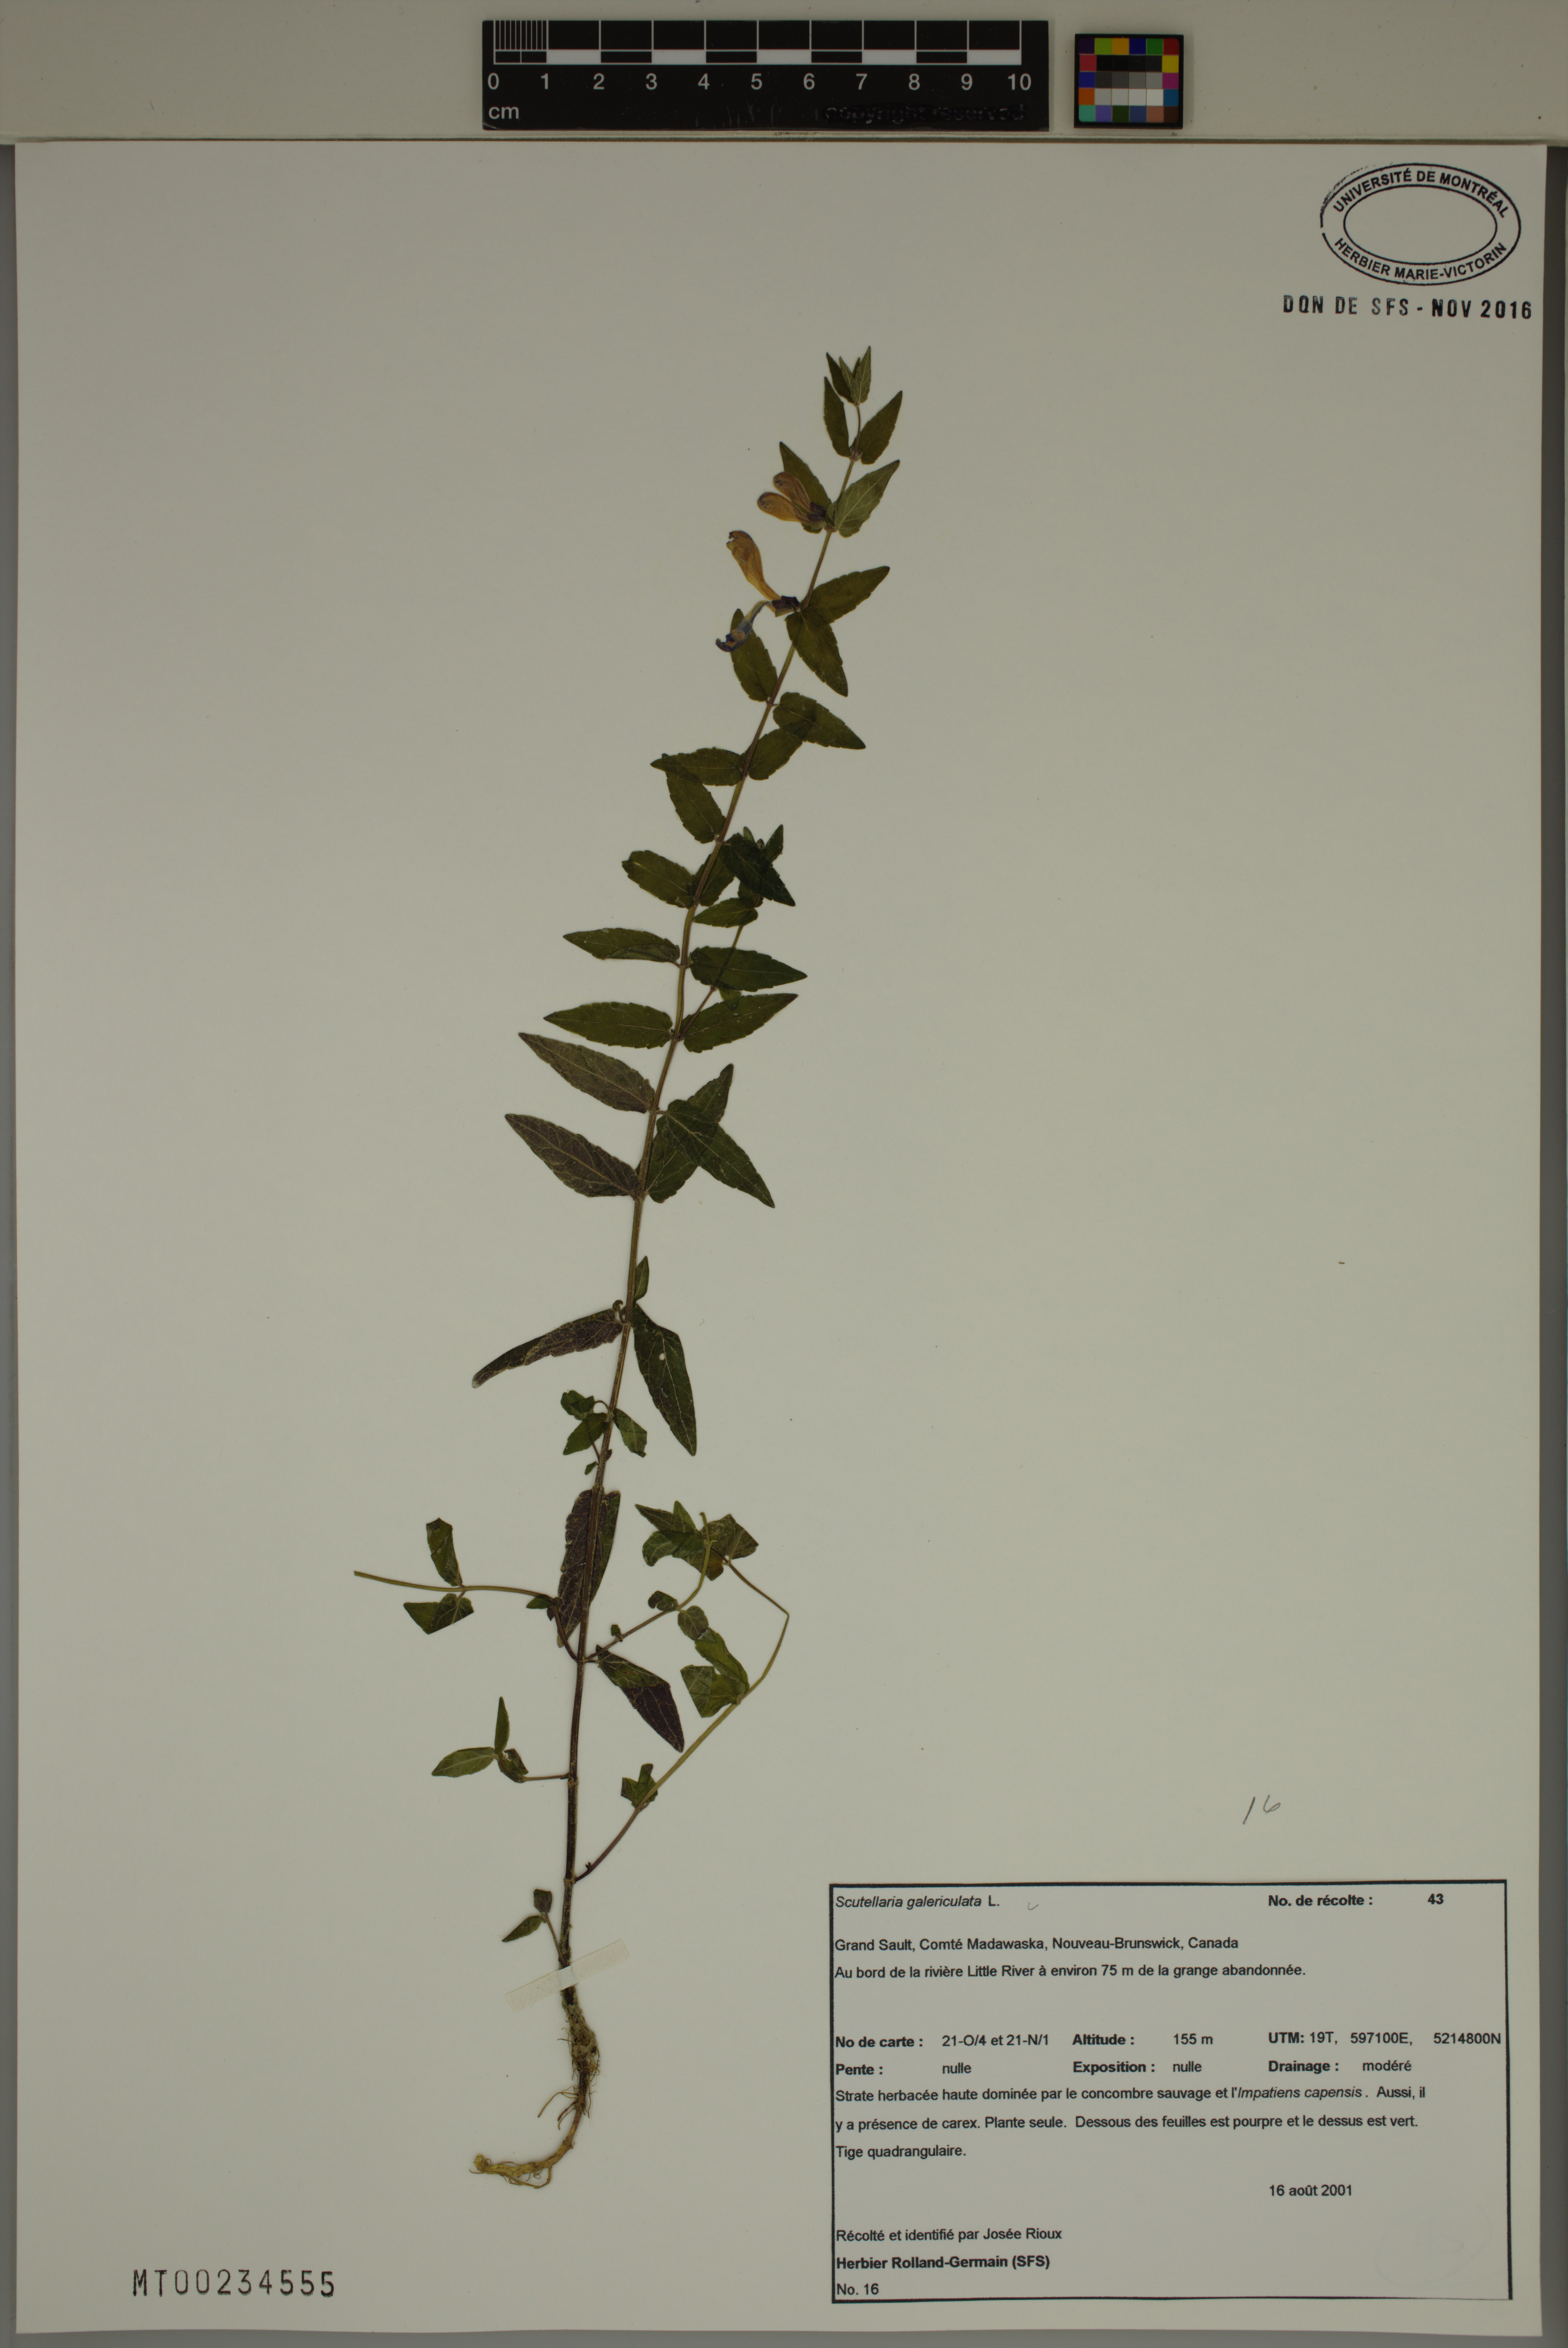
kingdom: Plantae
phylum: Tracheophyta
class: Magnoliopsida
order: Lamiales
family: Lamiaceae
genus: Scutellaria
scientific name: Scutellaria galericulata
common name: Skullcap
